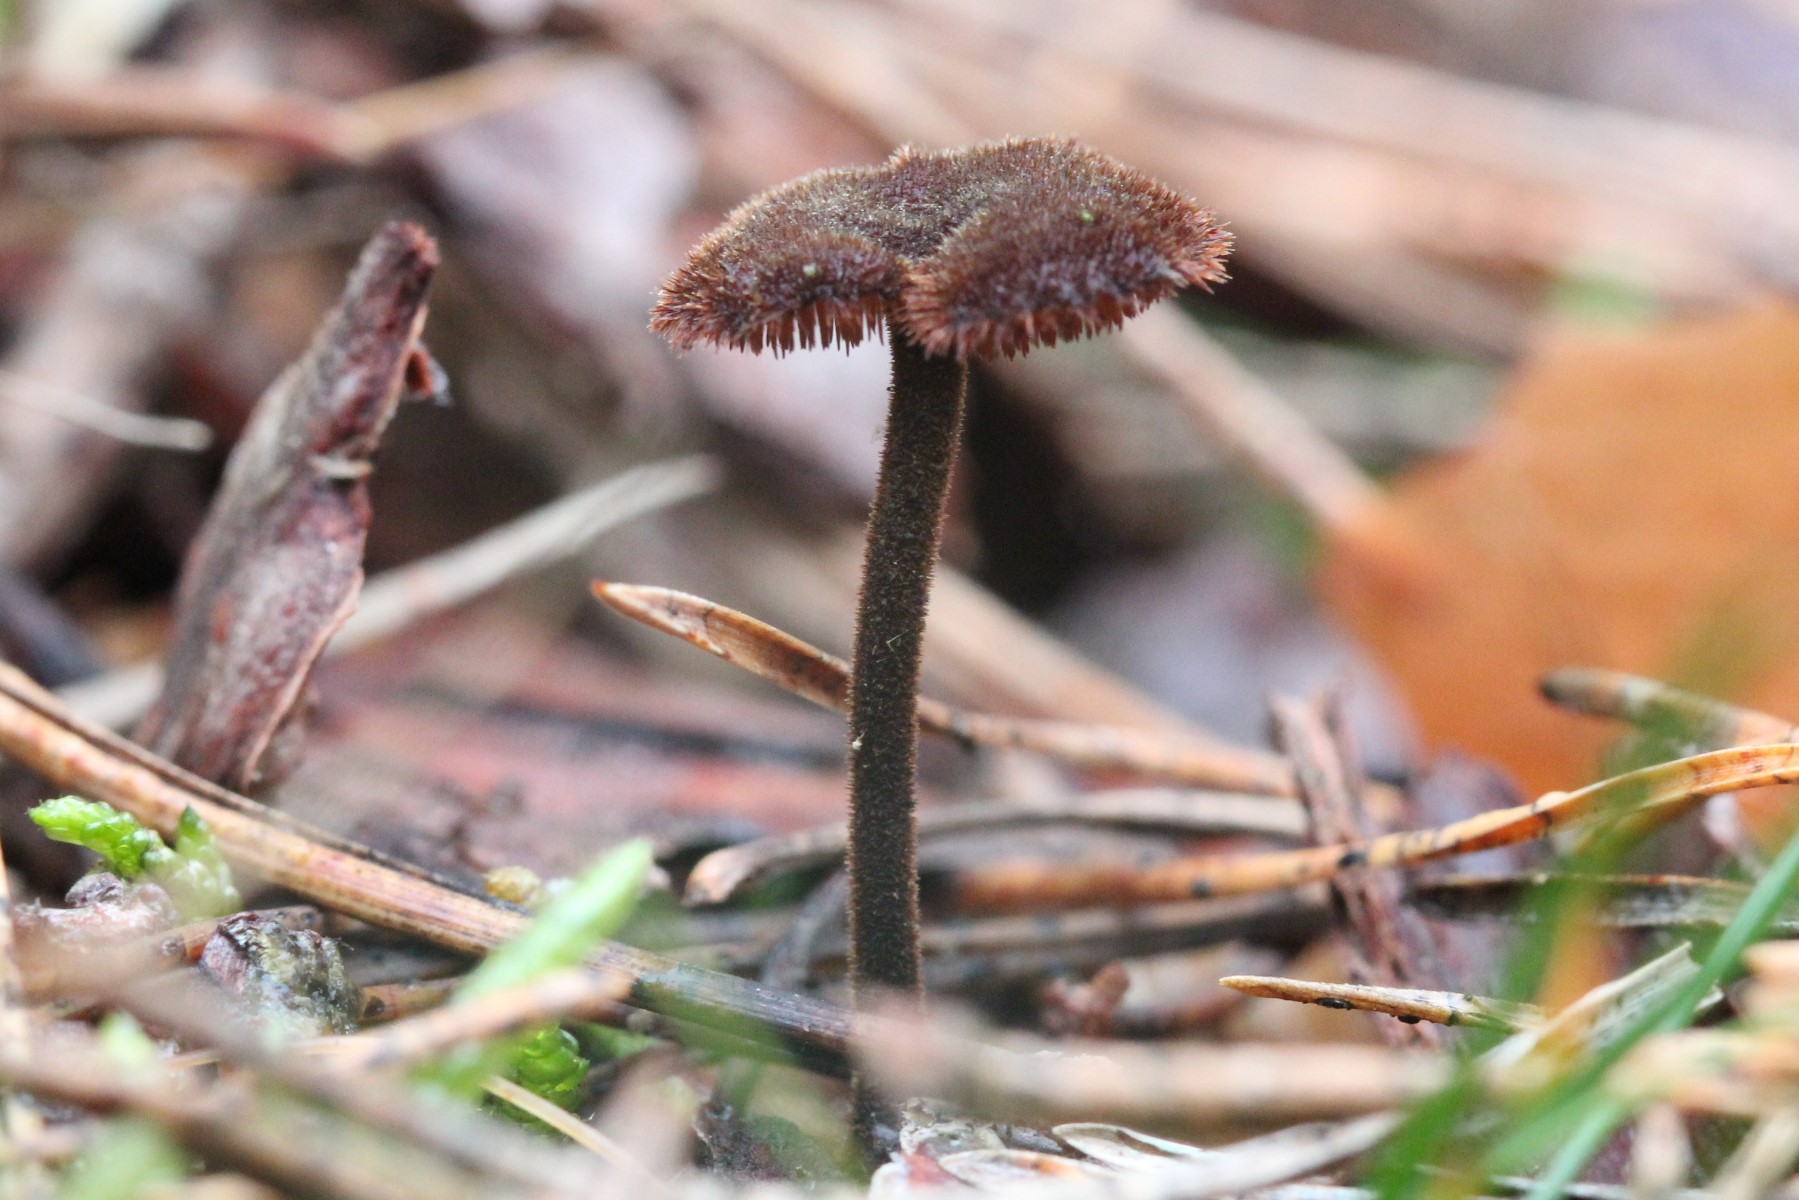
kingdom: Fungi
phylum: Basidiomycota
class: Agaricomycetes
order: Russulales
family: Auriscalpiaceae
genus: Auriscalpium
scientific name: Auriscalpium vulgare
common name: koglepigsvamp
